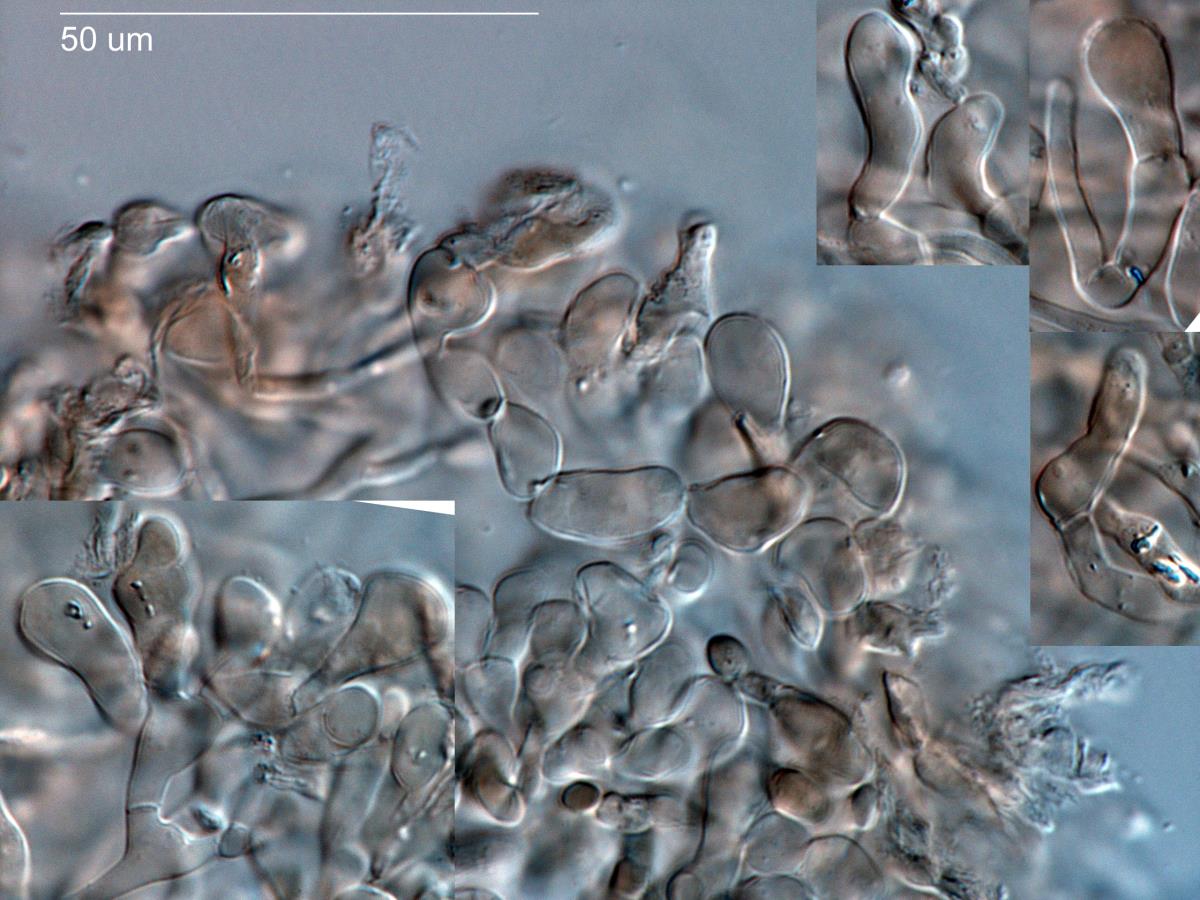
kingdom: Fungi
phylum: Basidiomycota
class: Agaricomycetes
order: Agaricales
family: Agaricaceae
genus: Agaricus
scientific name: Agaricus cupreobrunneus
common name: Copper mushrooom
